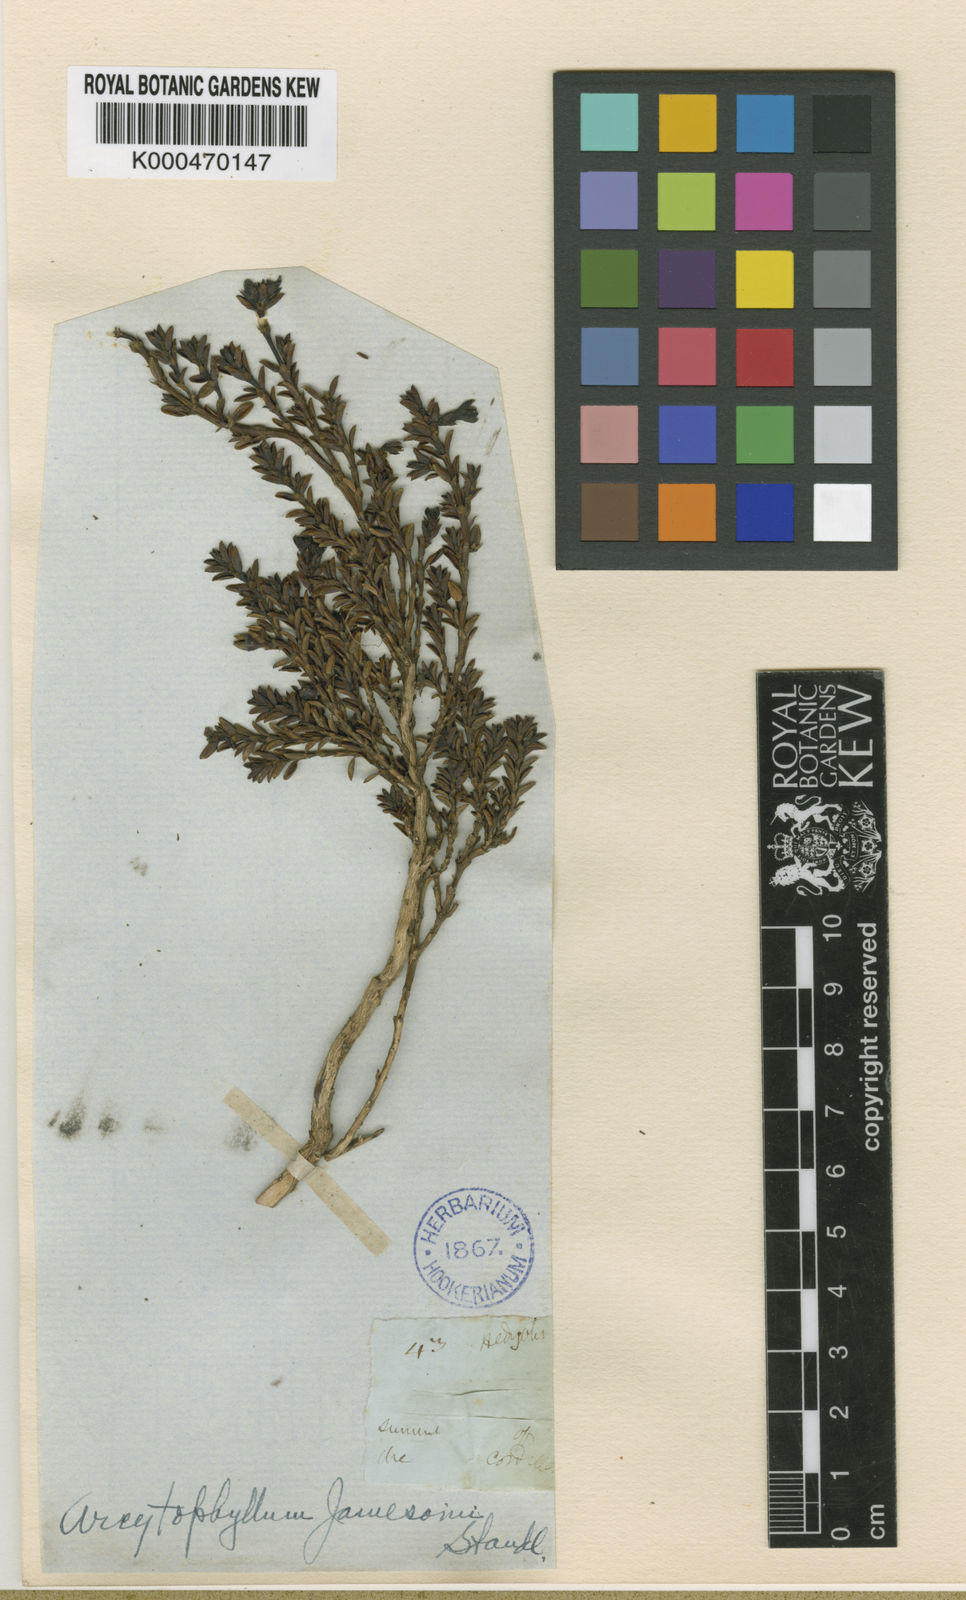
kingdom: Plantae
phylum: Tracheophyta
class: Magnoliopsida
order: Gentianales
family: Rubiaceae
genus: Arcytophyllum
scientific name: Arcytophyllum vernicosum
